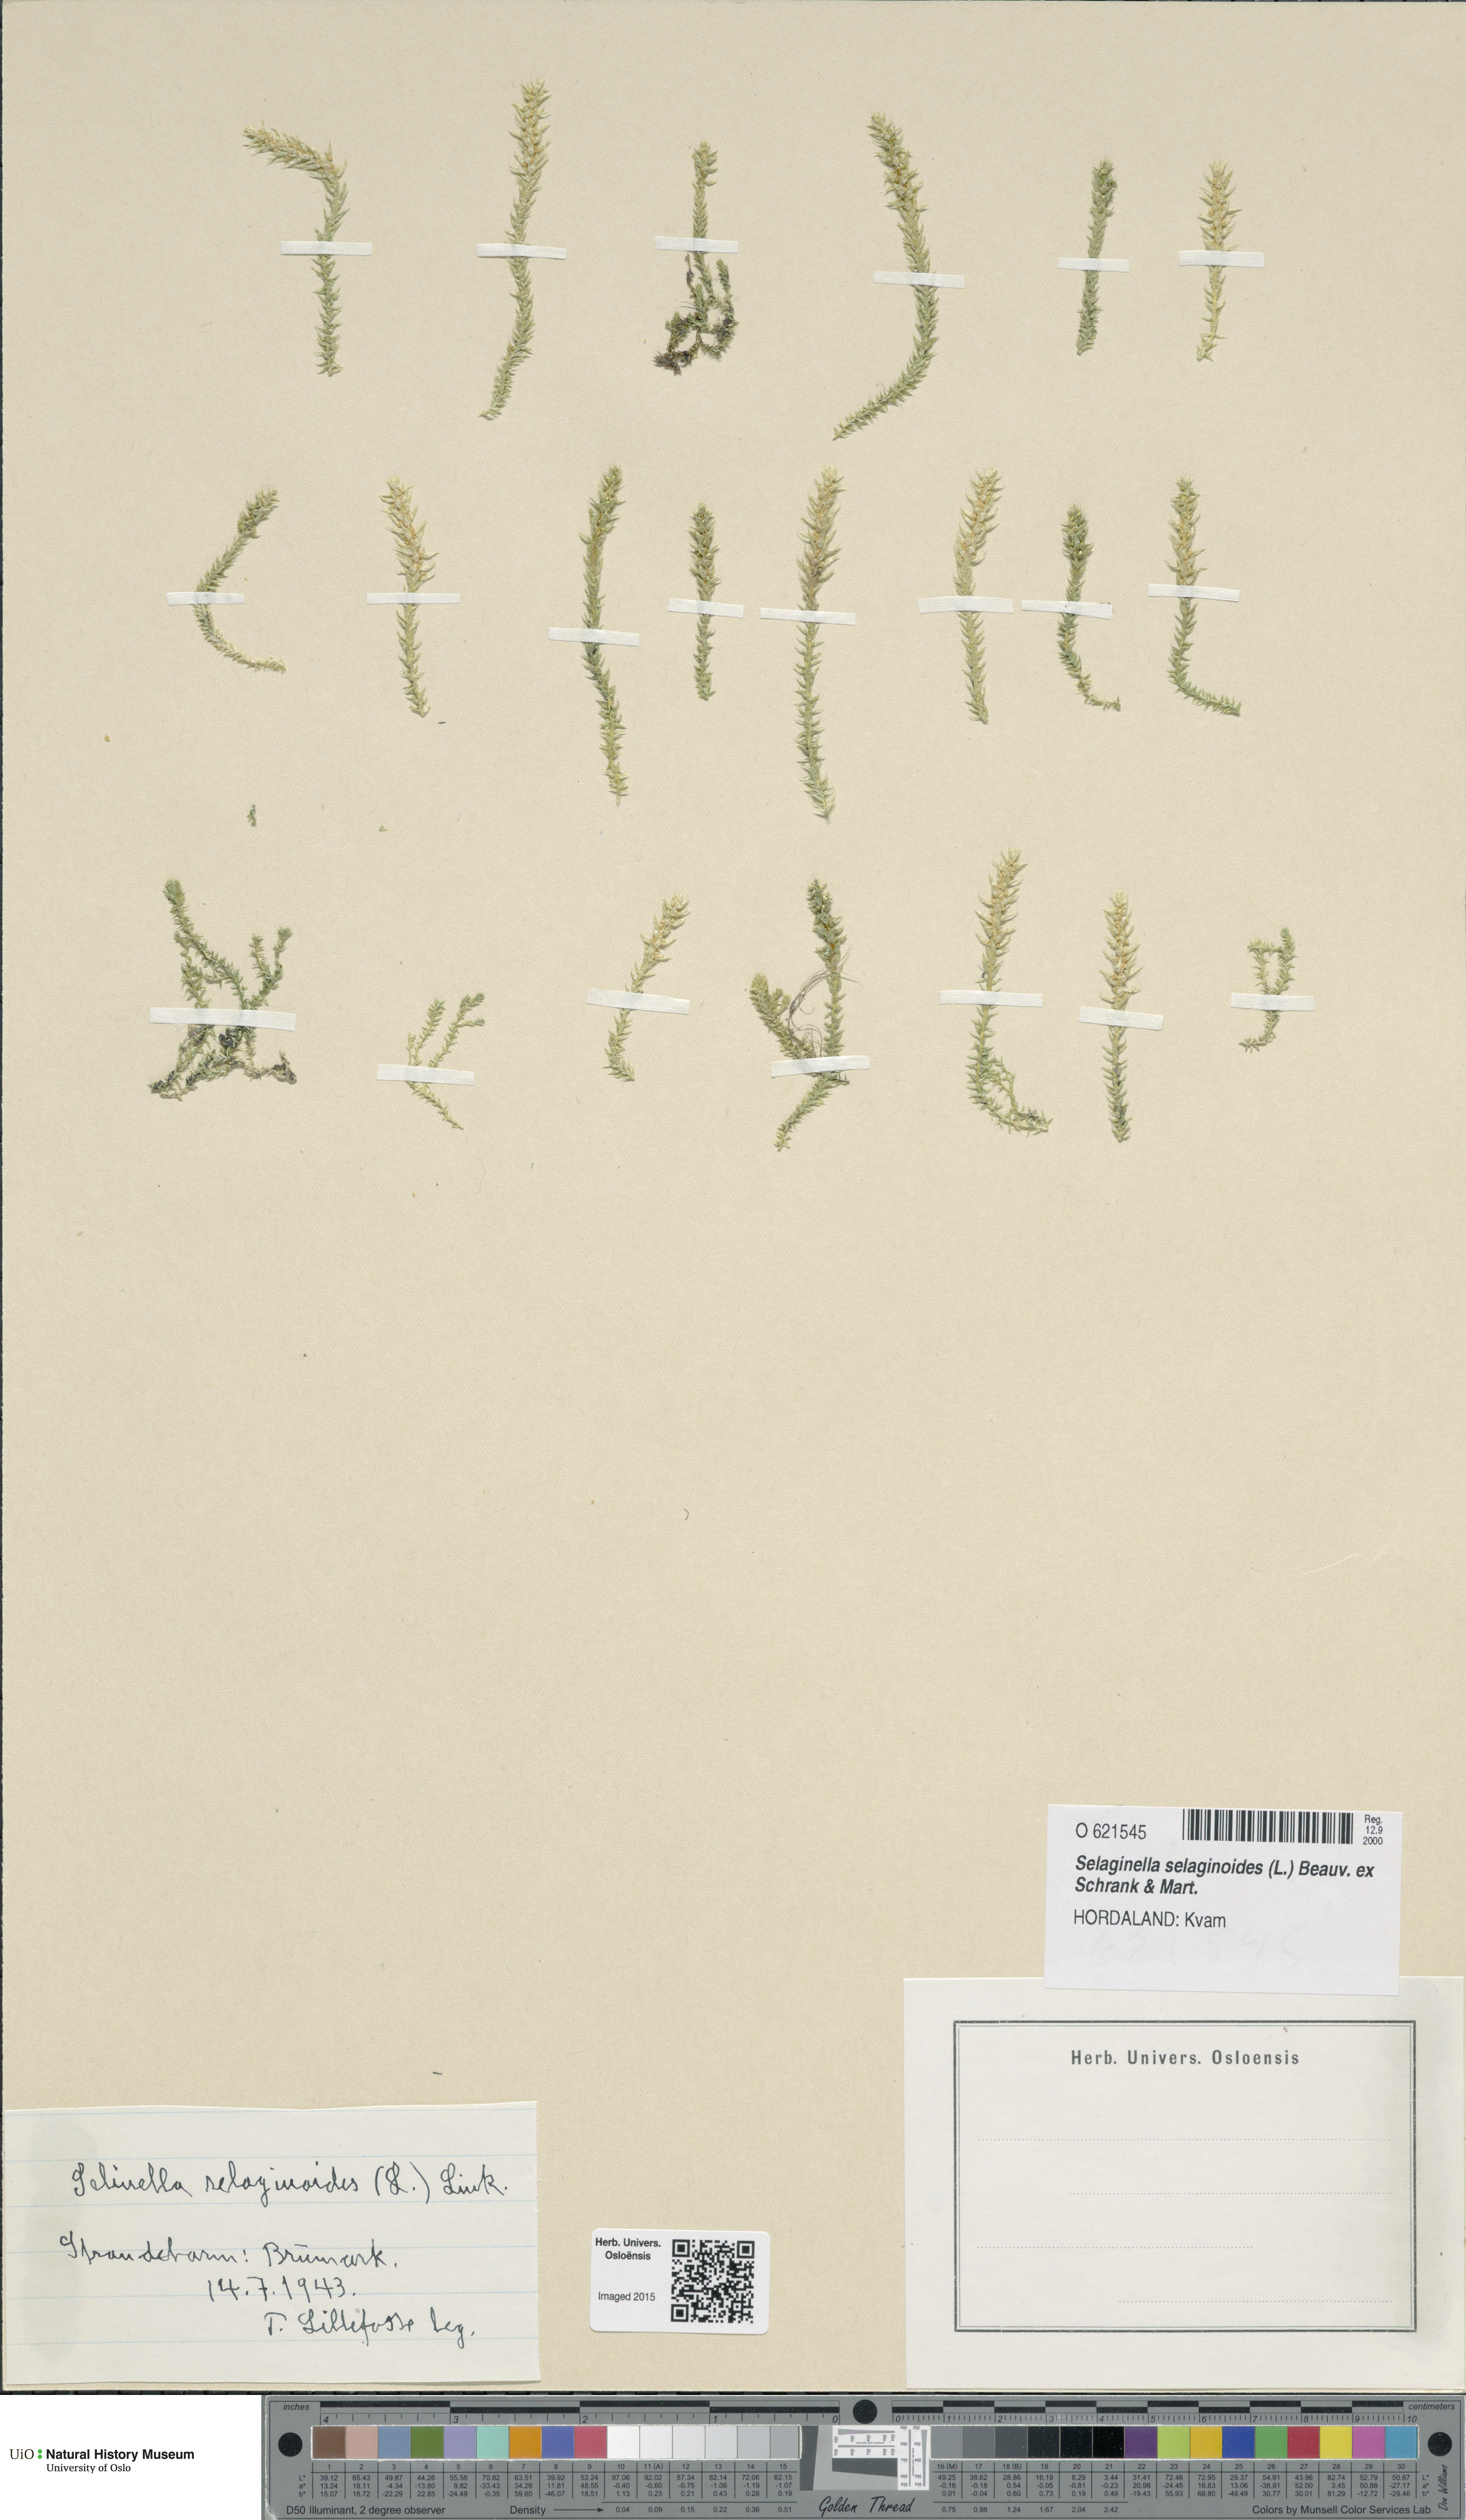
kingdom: Plantae
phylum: Tracheophyta
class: Lycopodiopsida
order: Selaginellales
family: Selaginellaceae
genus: Selaginella
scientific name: Selaginella selaginoides
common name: Prickly mountain-moss
